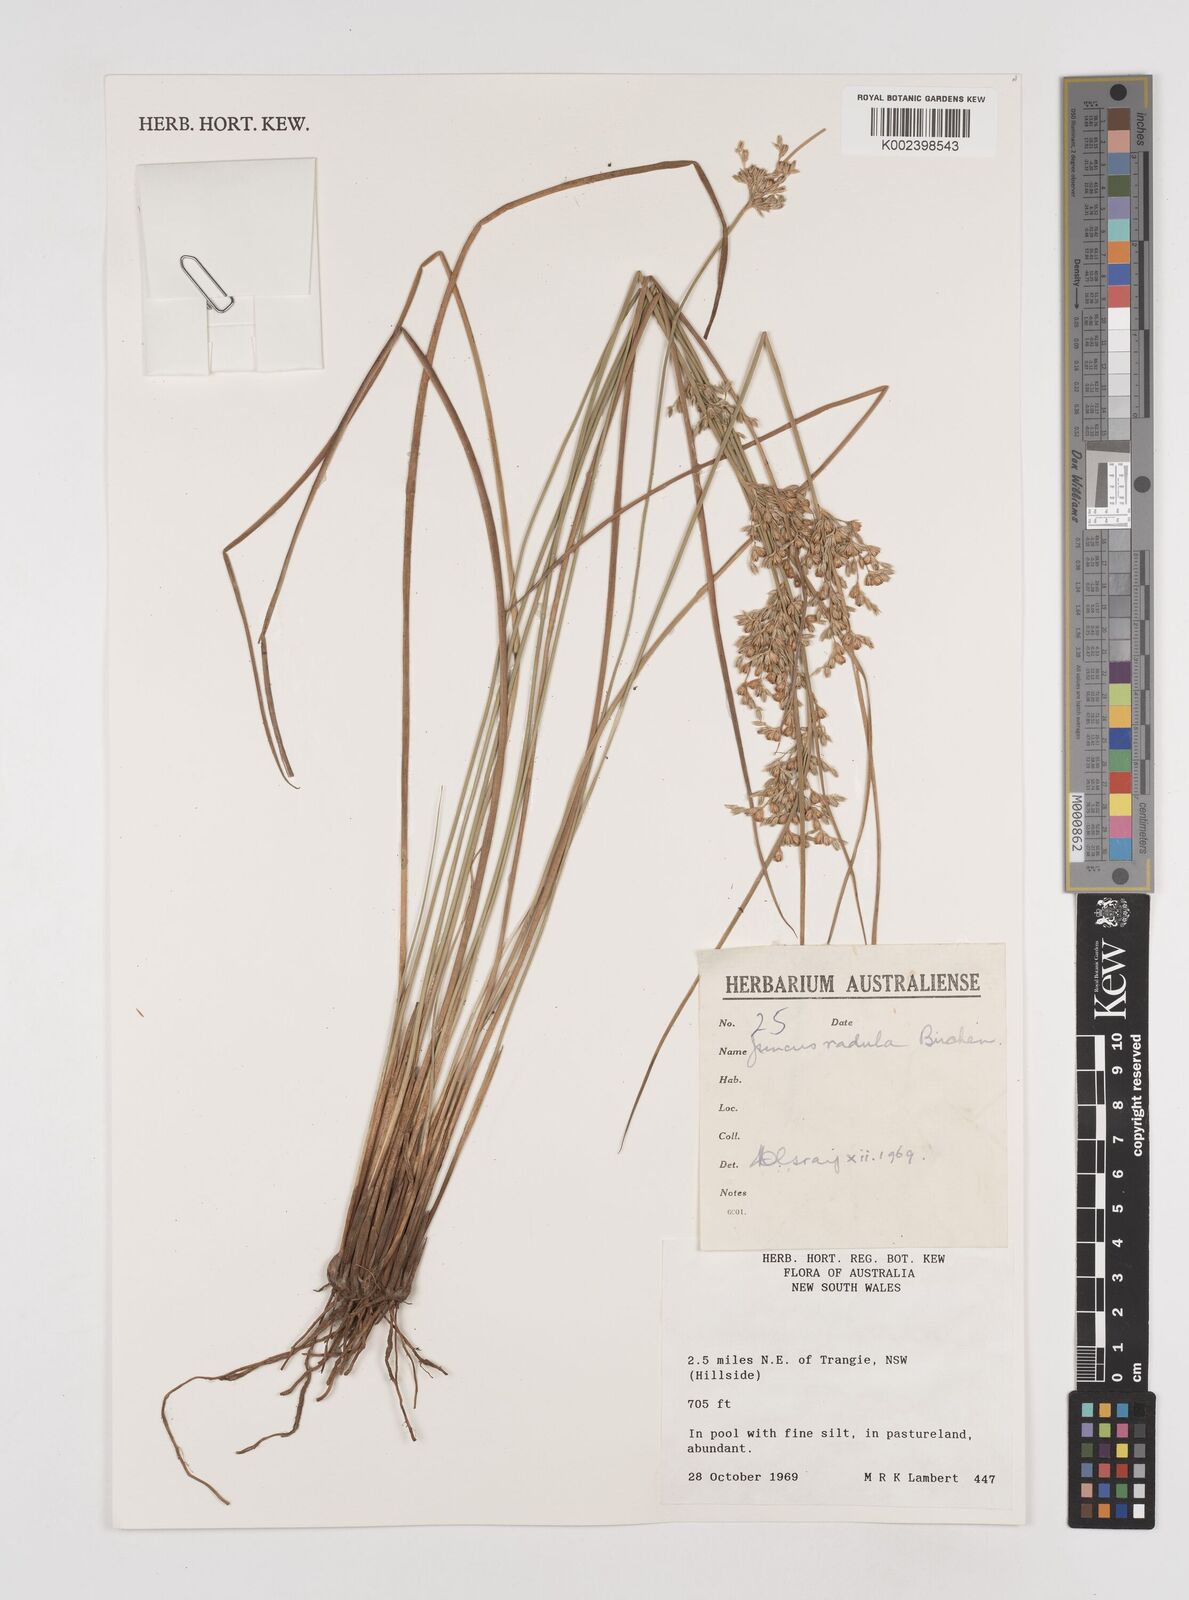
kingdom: Plantae
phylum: Tracheophyta
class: Liliopsida
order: Poales
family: Juncaceae
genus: Juncus
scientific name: Juncus radula
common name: Hoary rush
